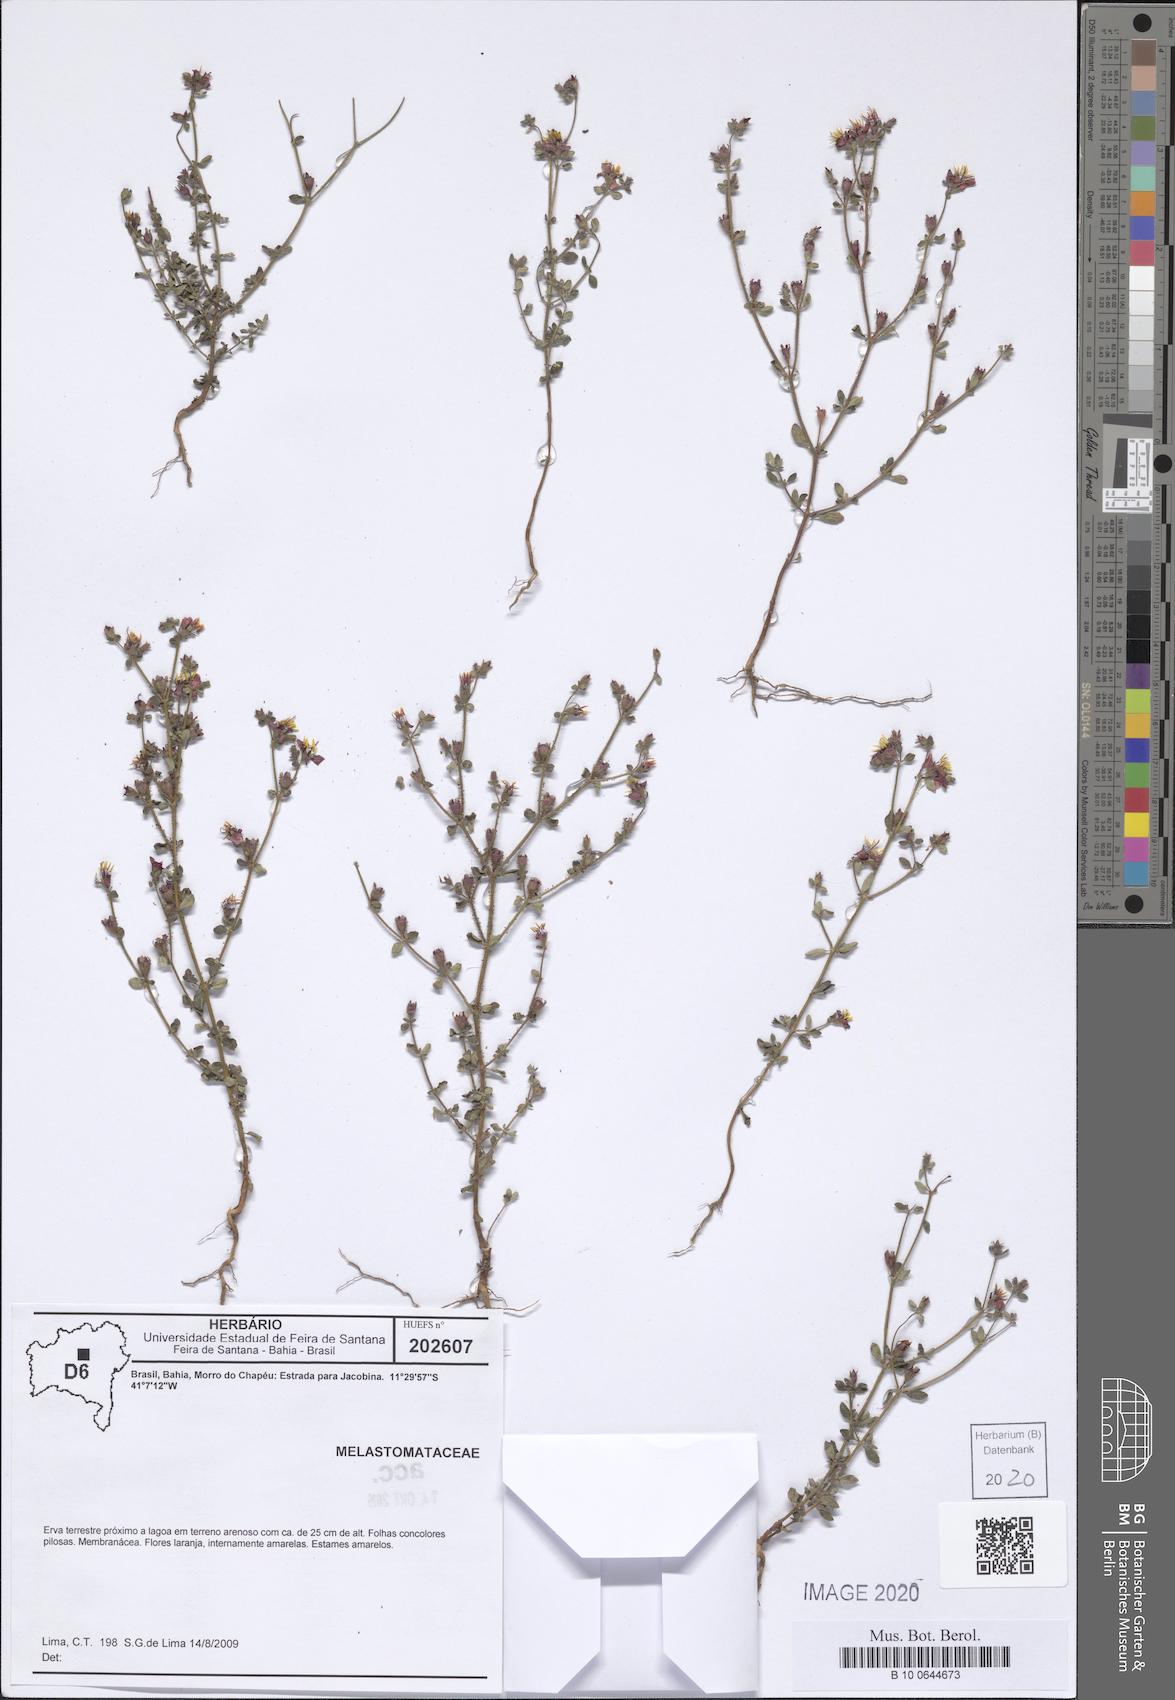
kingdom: Plantae
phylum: Tracheophyta
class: Magnoliopsida
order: Myrtales
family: Melastomataceae
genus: Marcetia
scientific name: Marcetia canescens
